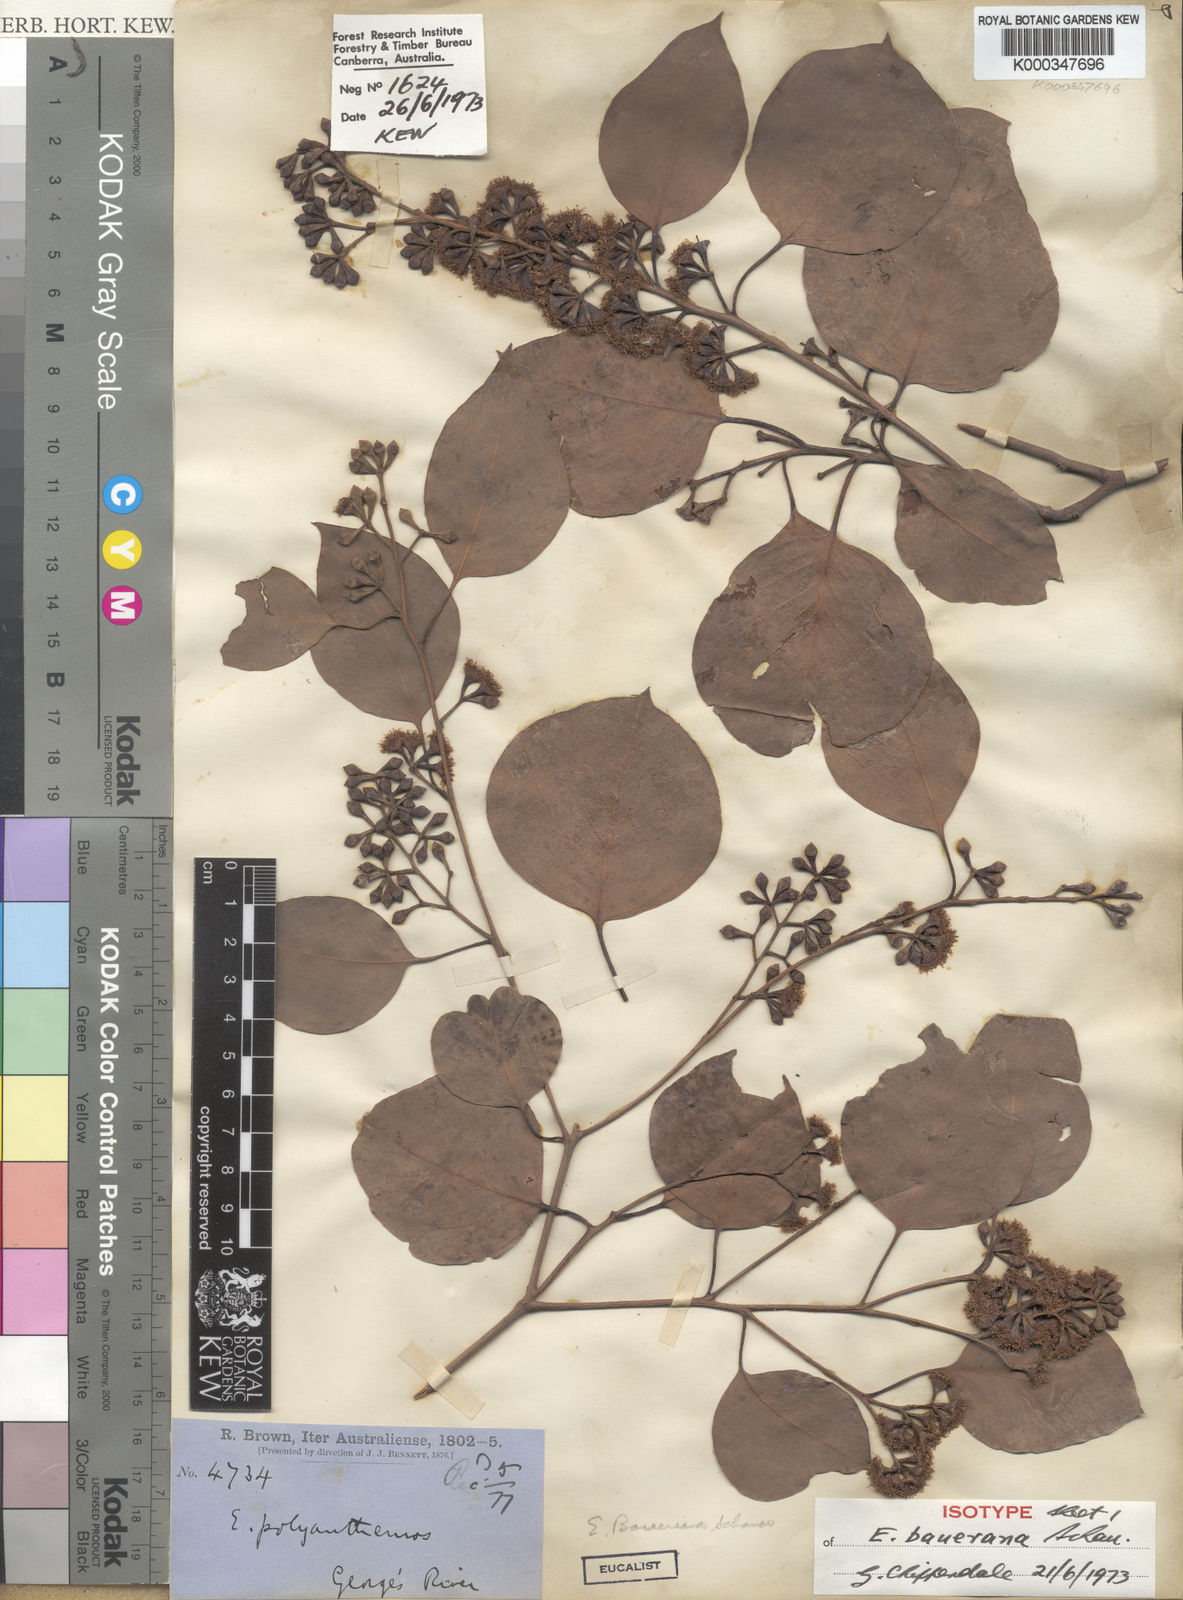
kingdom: Plantae
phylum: Tracheophyta
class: Magnoliopsida
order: Myrtales
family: Myrtaceae
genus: Eucalyptus
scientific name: Eucalyptus baueriana
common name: Round-leaf-box
